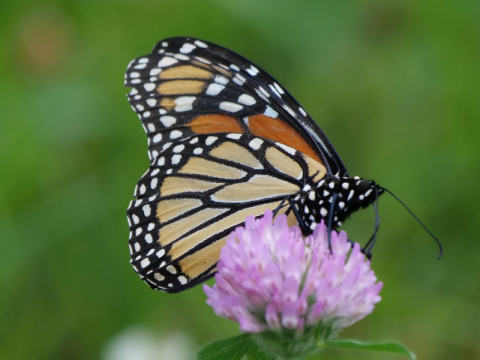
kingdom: Animalia
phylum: Arthropoda
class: Insecta
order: Lepidoptera
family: Nymphalidae
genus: Danaus
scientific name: Danaus plexippus
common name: Monarch
